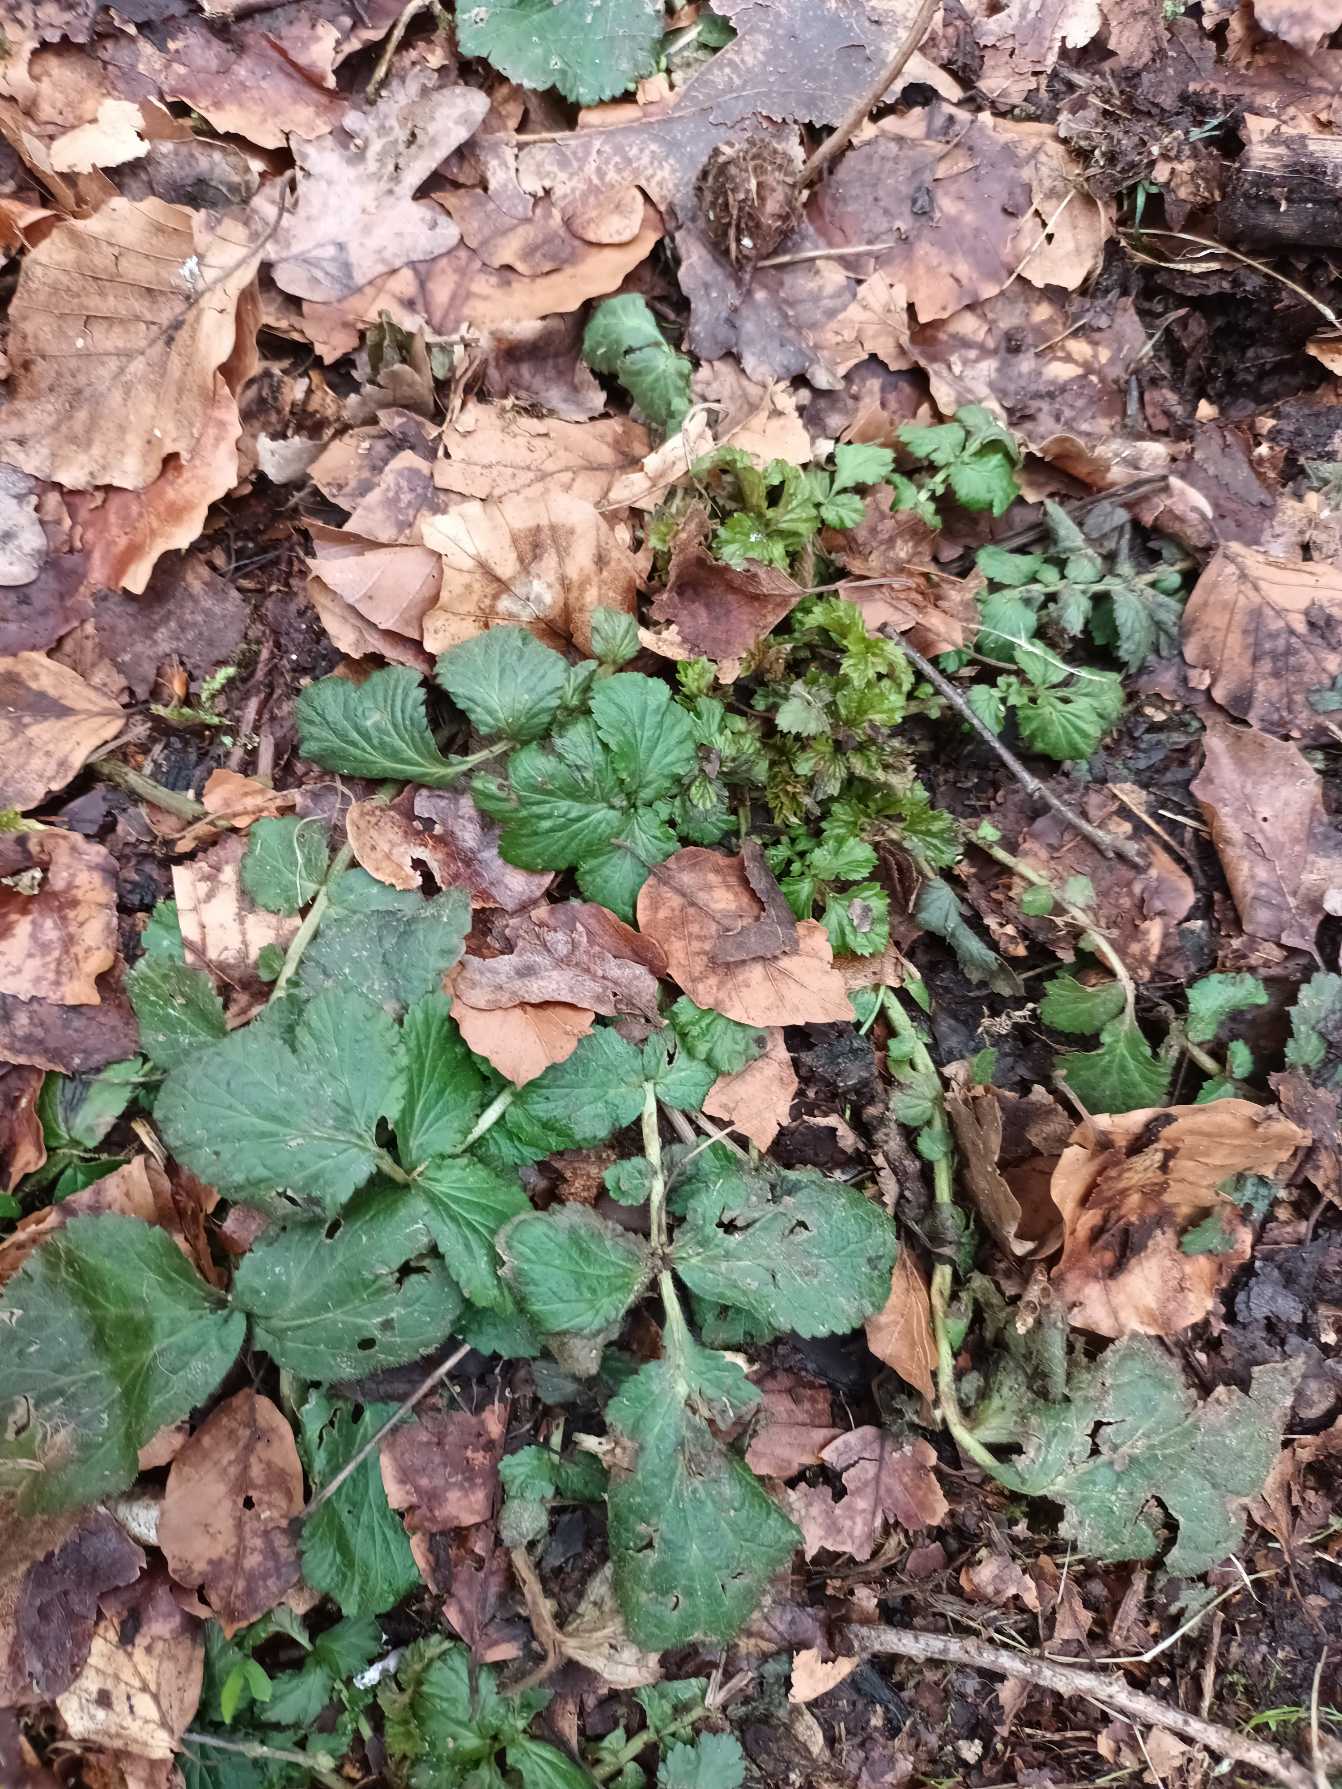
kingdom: Plantae
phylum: Tracheophyta
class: Magnoliopsida
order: Rosales
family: Rosaceae
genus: Geum
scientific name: Geum urbanum
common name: Feber-nellikerod
